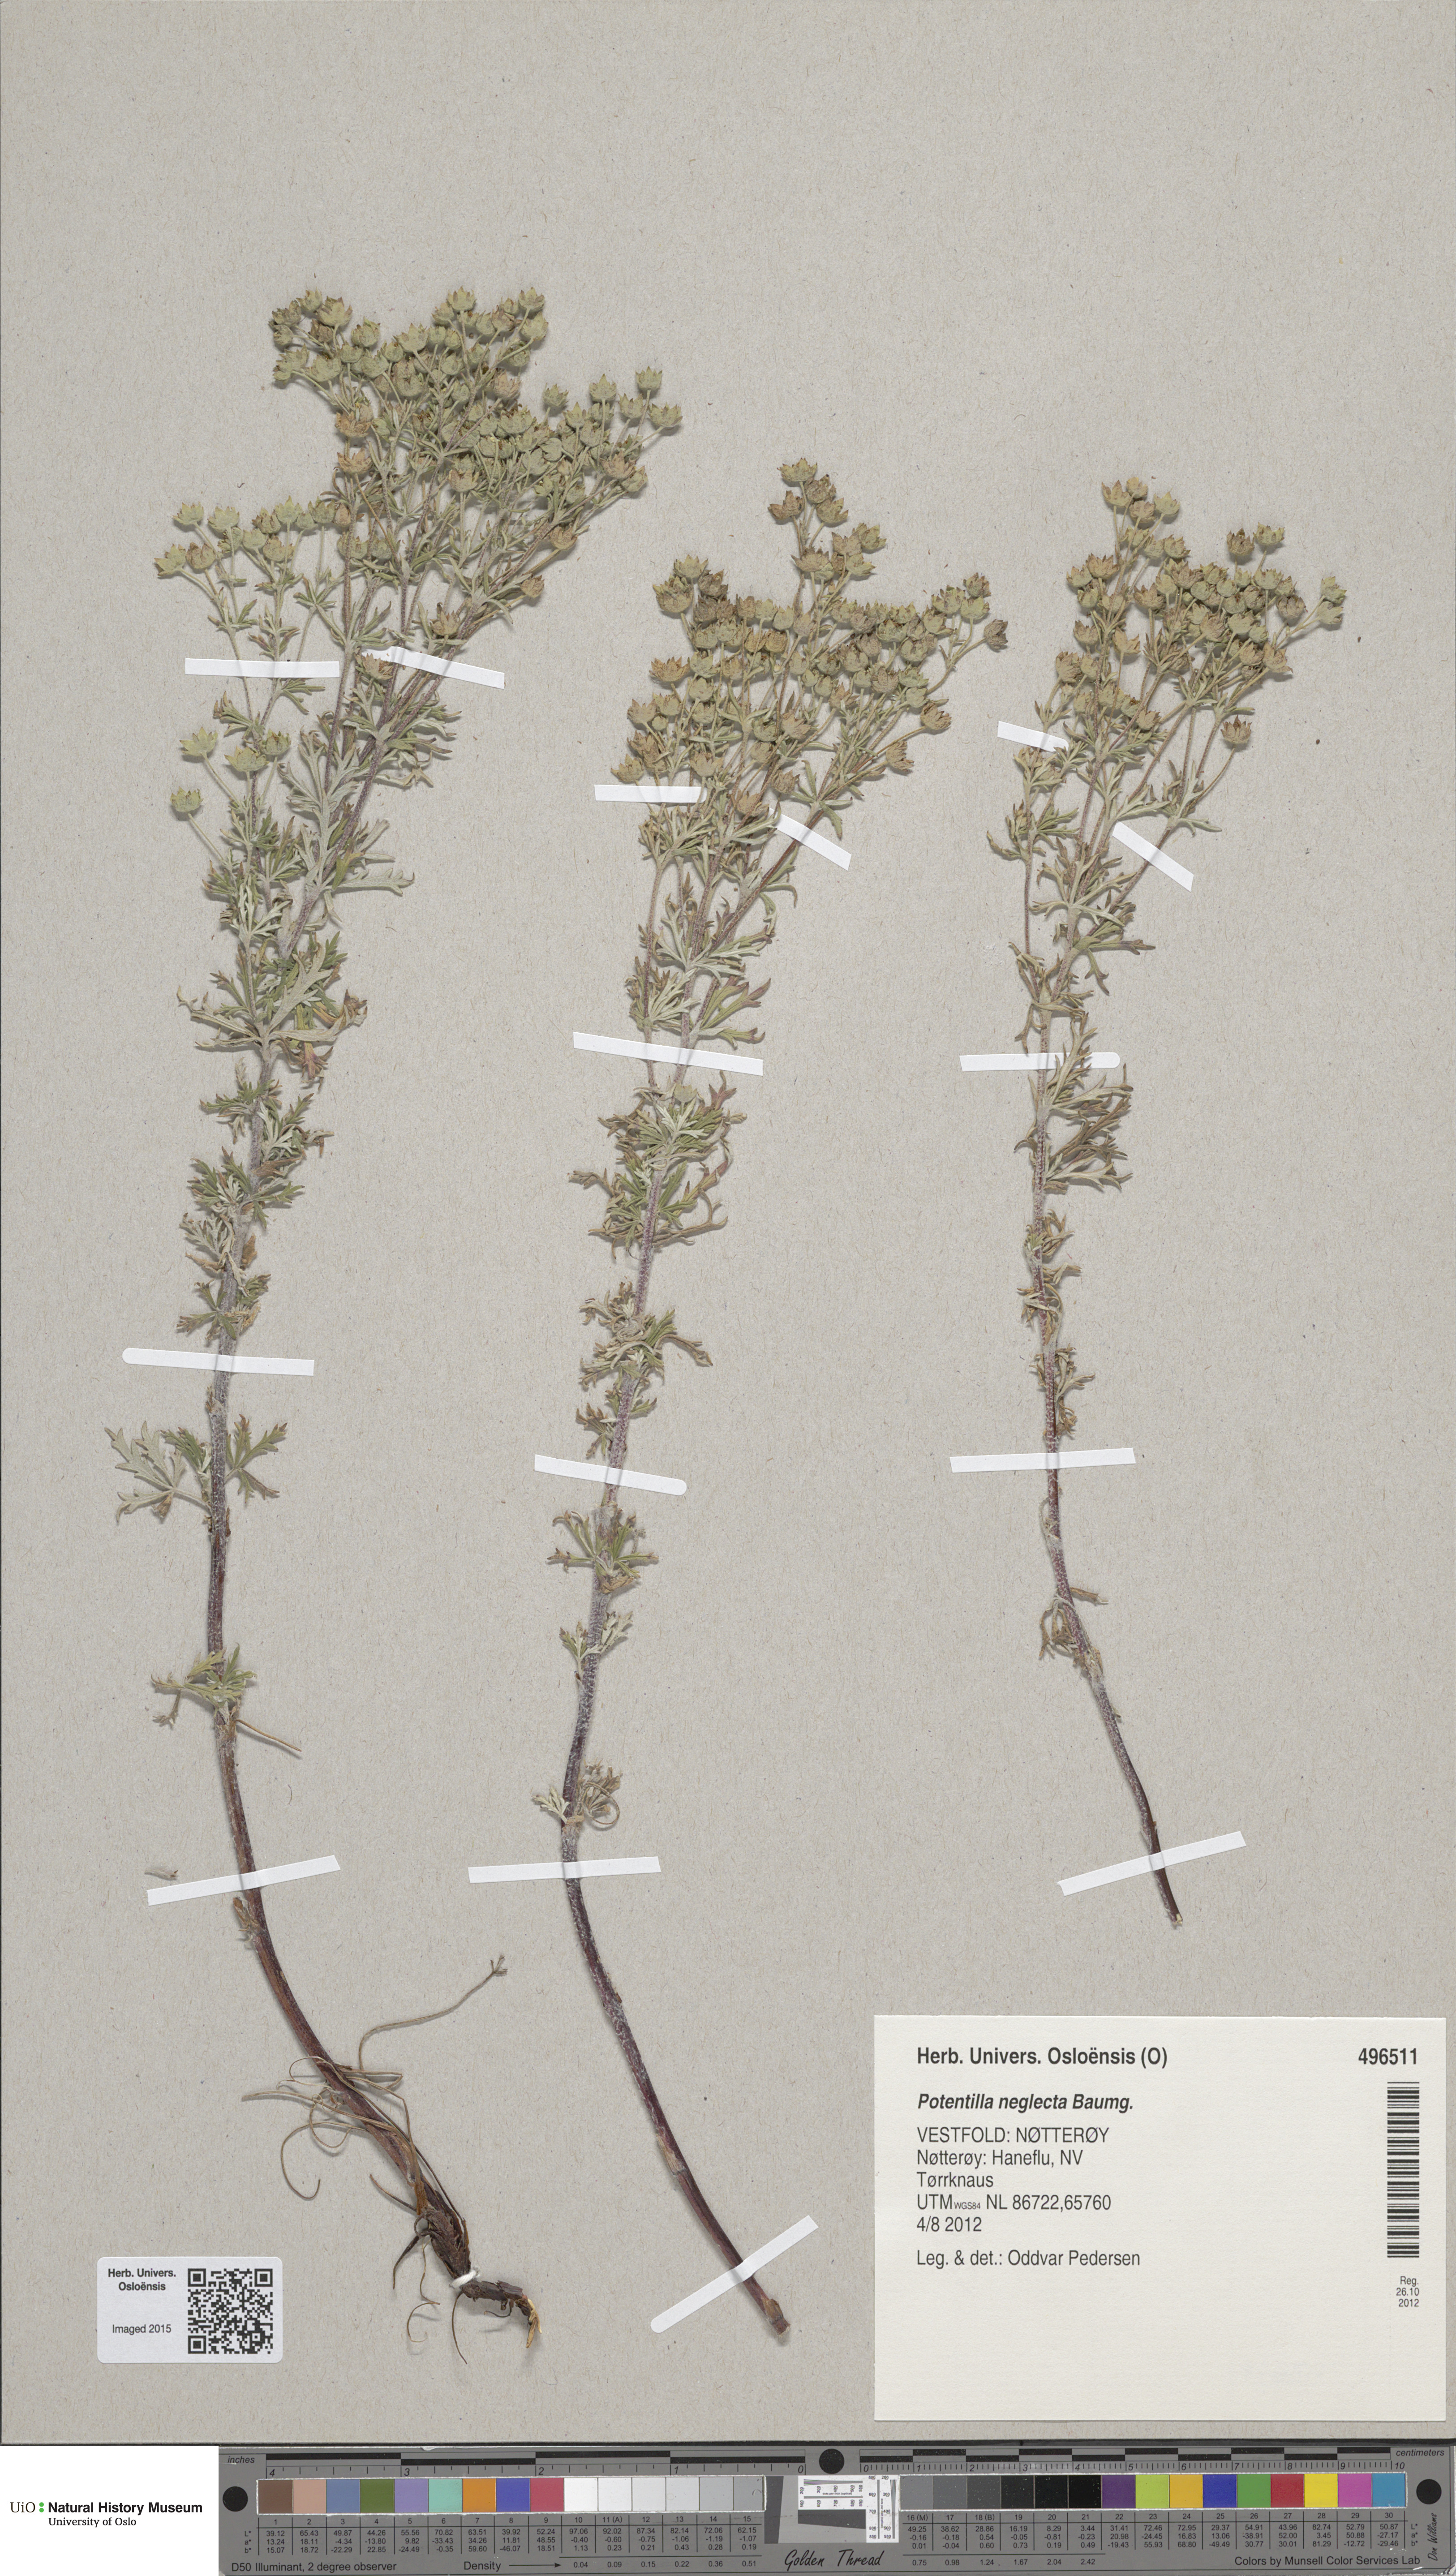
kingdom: Plantae
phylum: Tracheophyta
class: Magnoliopsida
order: Rosales
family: Rosaceae
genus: Potentilla
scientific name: Potentilla neglecta
